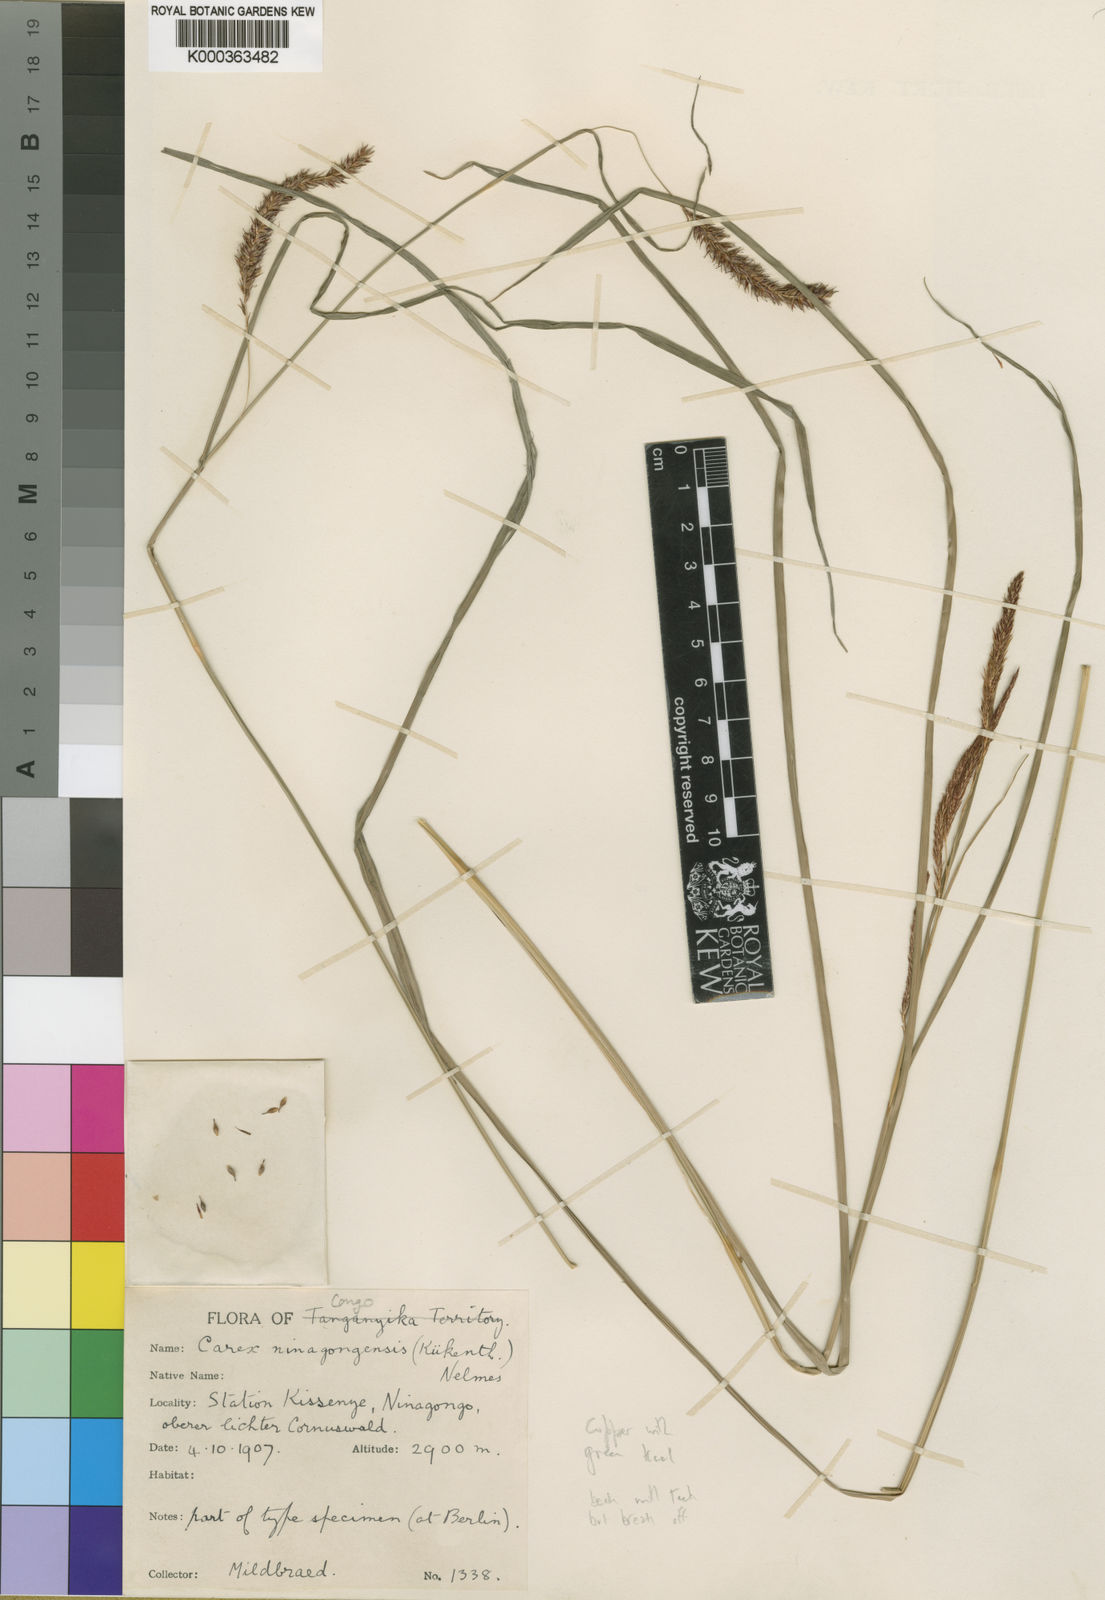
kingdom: Plantae
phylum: Tracheophyta
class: Liliopsida
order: Poales
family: Cyperaceae
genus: Carex
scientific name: Carex
